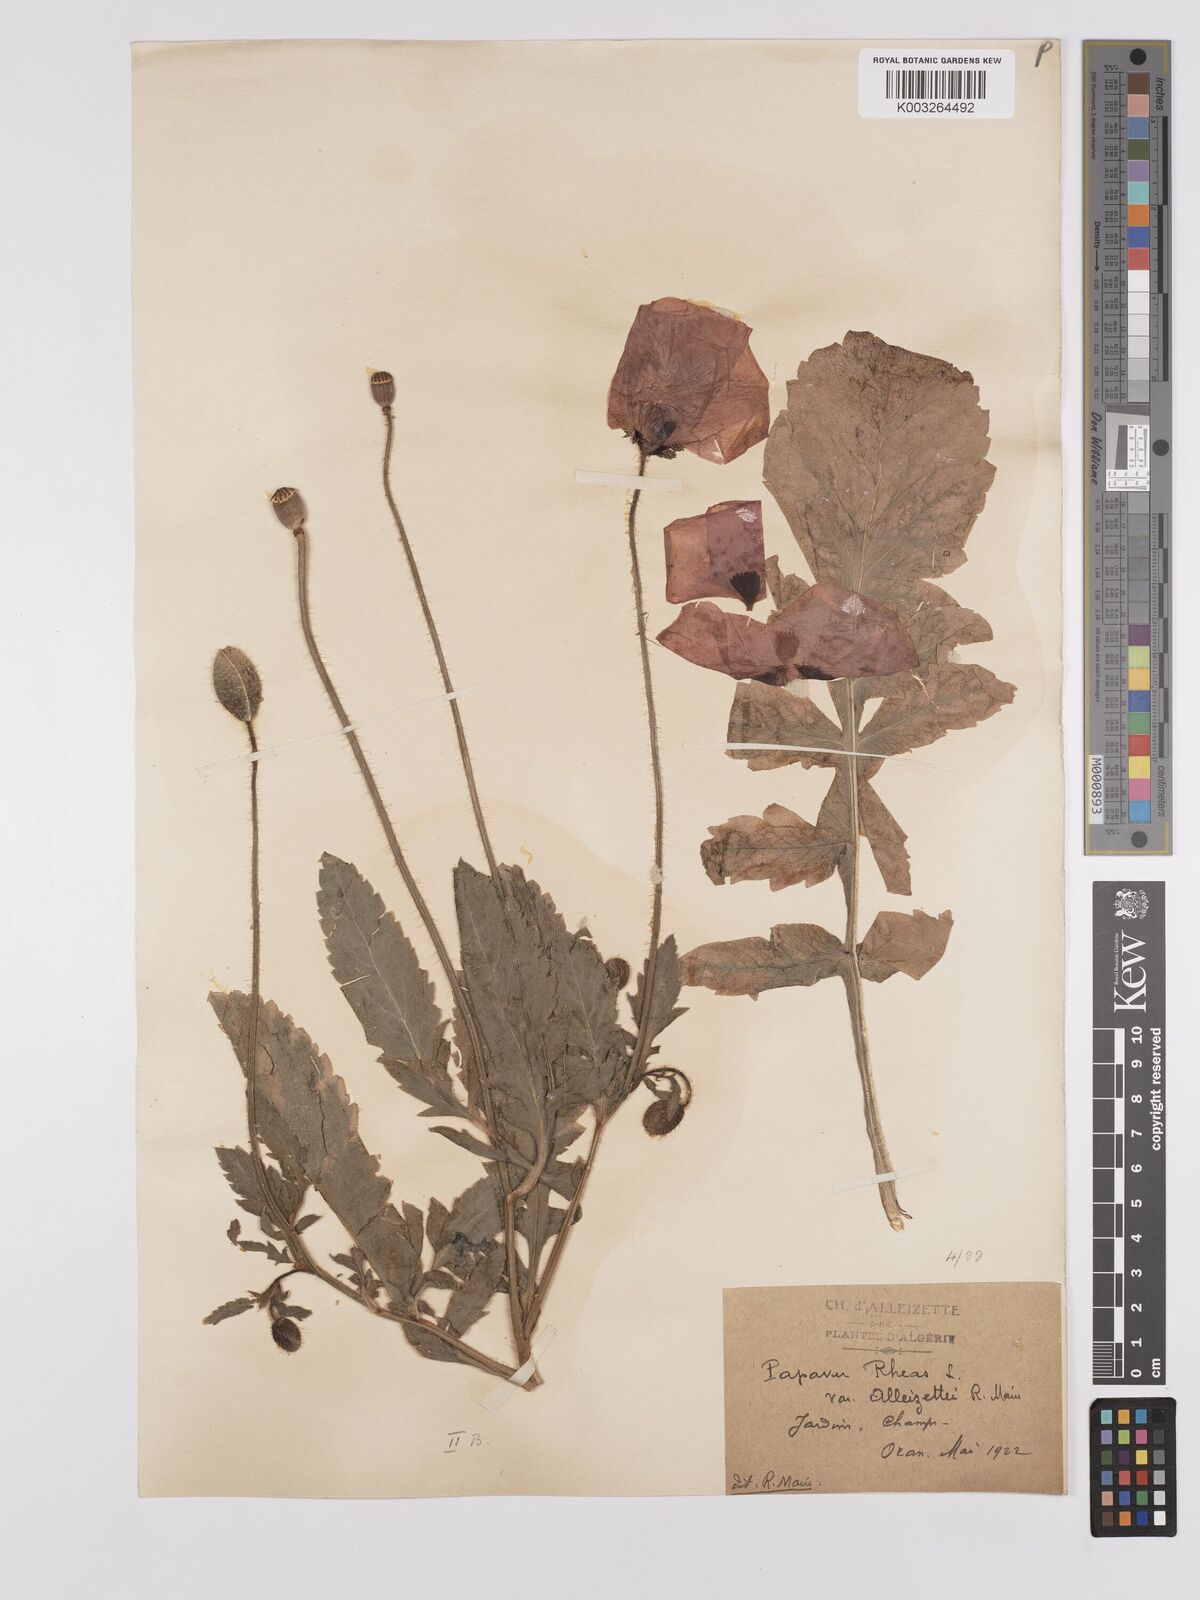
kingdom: Plantae
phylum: Tracheophyta
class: Magnoliopsida
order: Ranunculales
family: Papaveraceae
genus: Papaver
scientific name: Papaver rhoeas
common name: Corn poppy
